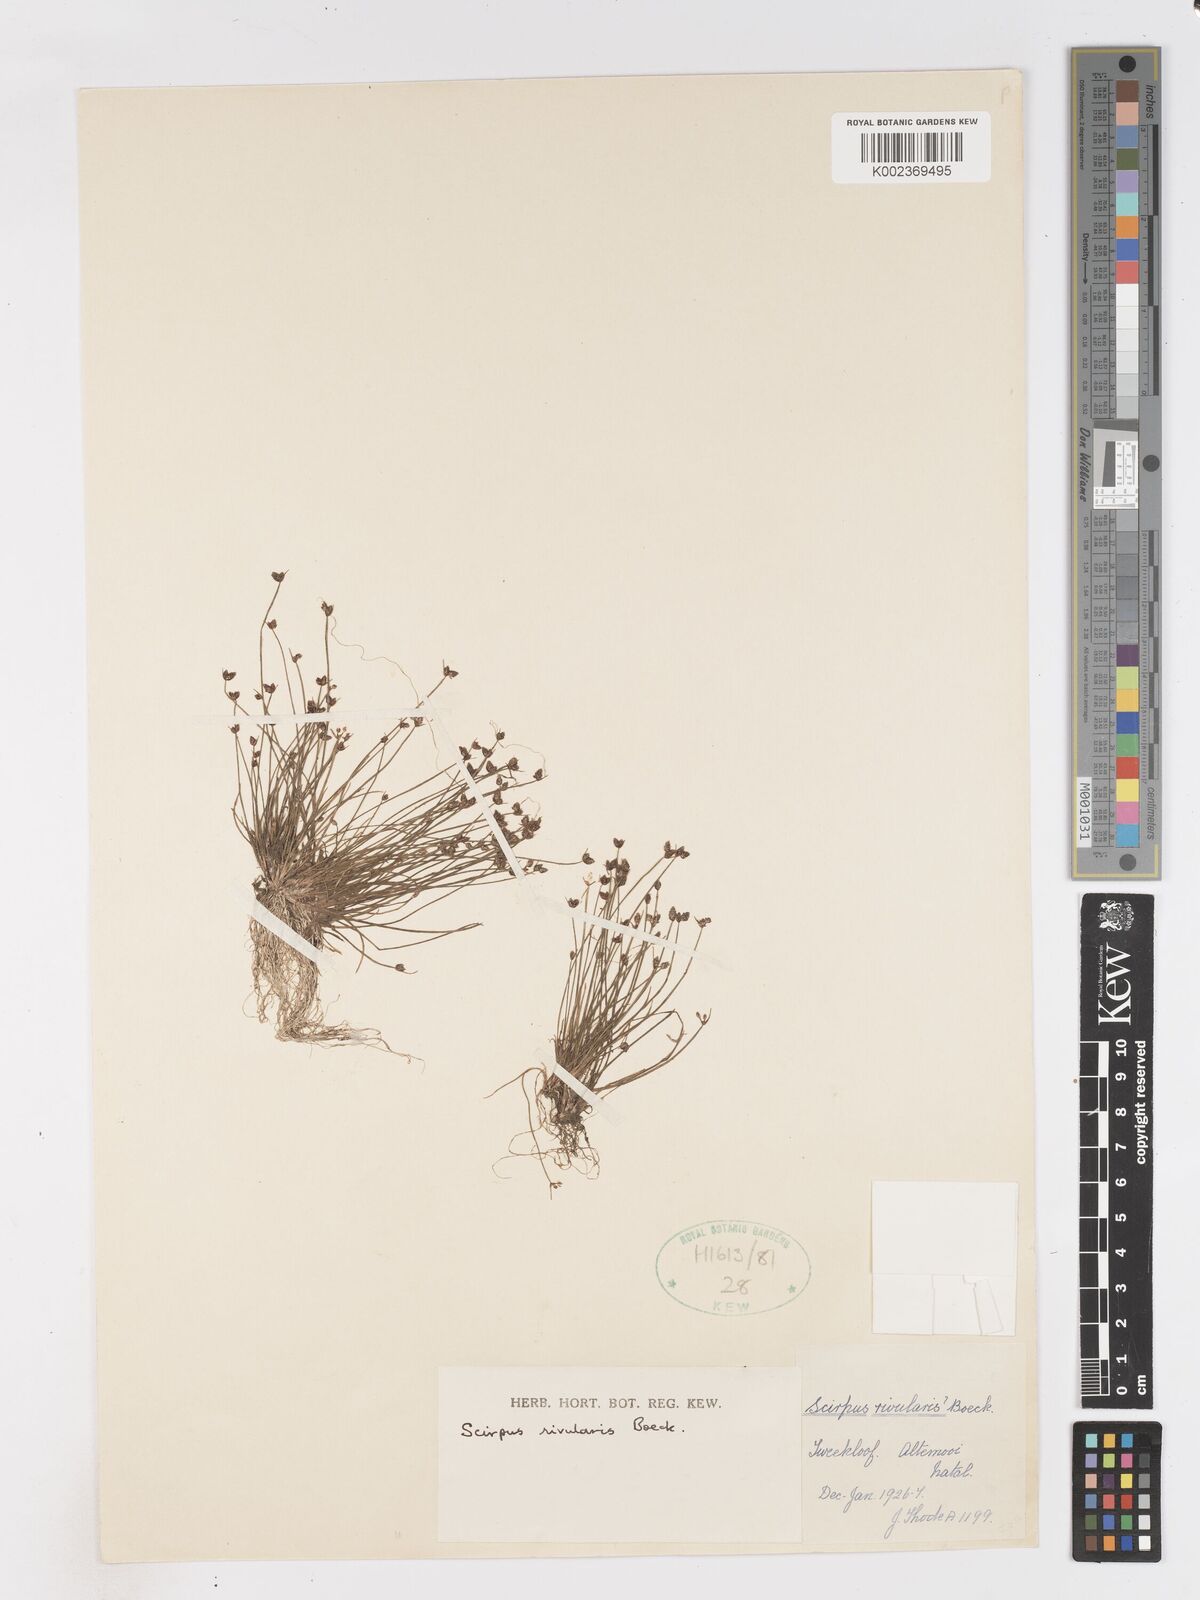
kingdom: Plantae
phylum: Tracheophyta
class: Liliopsida
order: Poales
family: Cyperaceae
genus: Isolepis
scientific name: Isolepis natans
